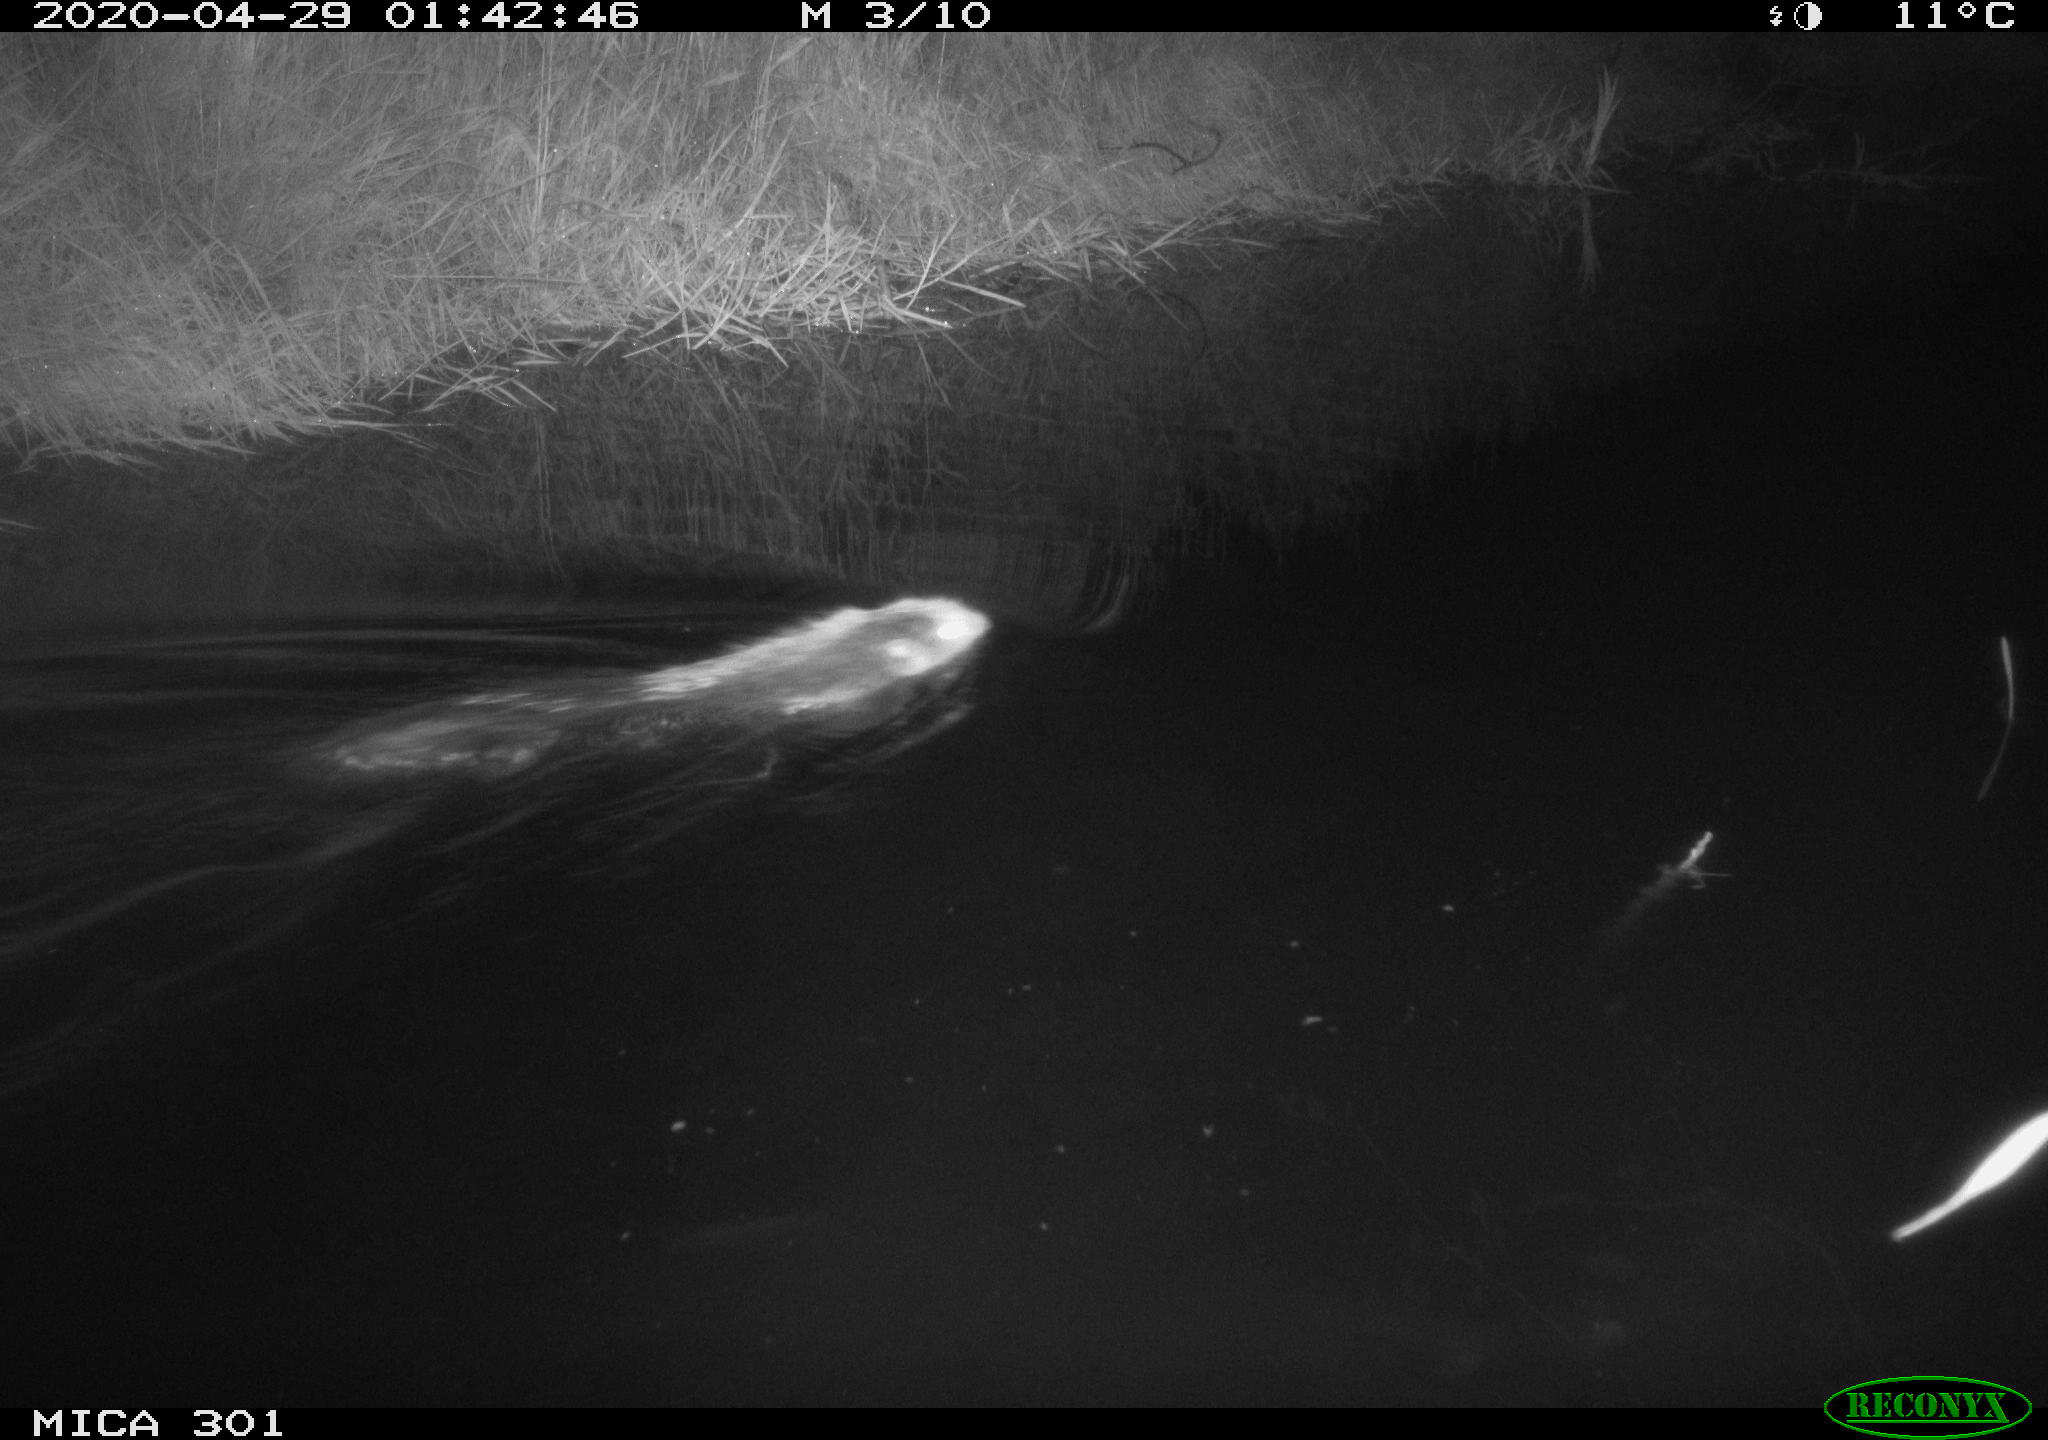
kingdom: Animalia
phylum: Chordata
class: Mammalia
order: Rodentia
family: Castoridae
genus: Castor
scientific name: Castor fiber
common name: Eurasian beaver
